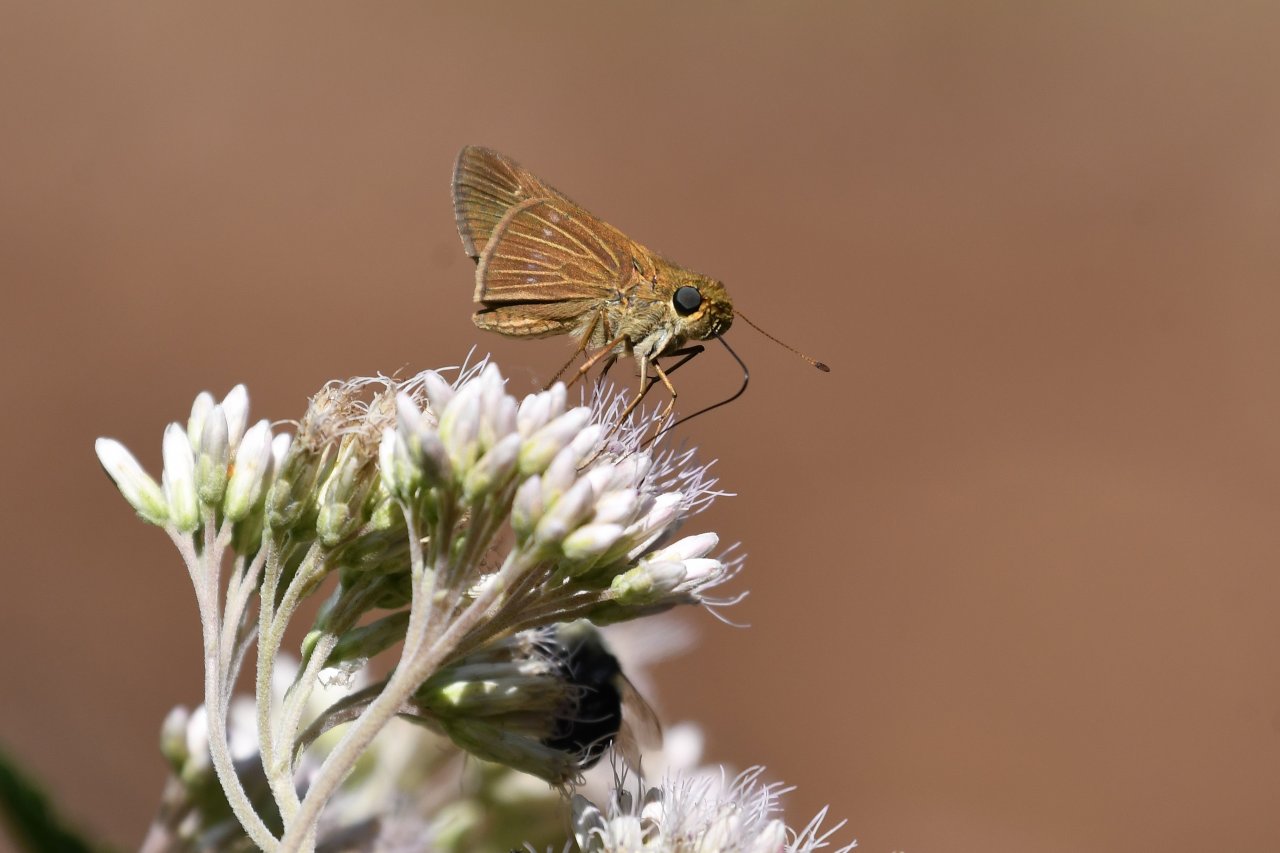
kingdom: Animalia
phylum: Arthropoda
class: Insecta
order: Lepidoptera
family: Hesperiidae
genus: Panoquina
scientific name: Panoquina ocola
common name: Ocola Skipper
